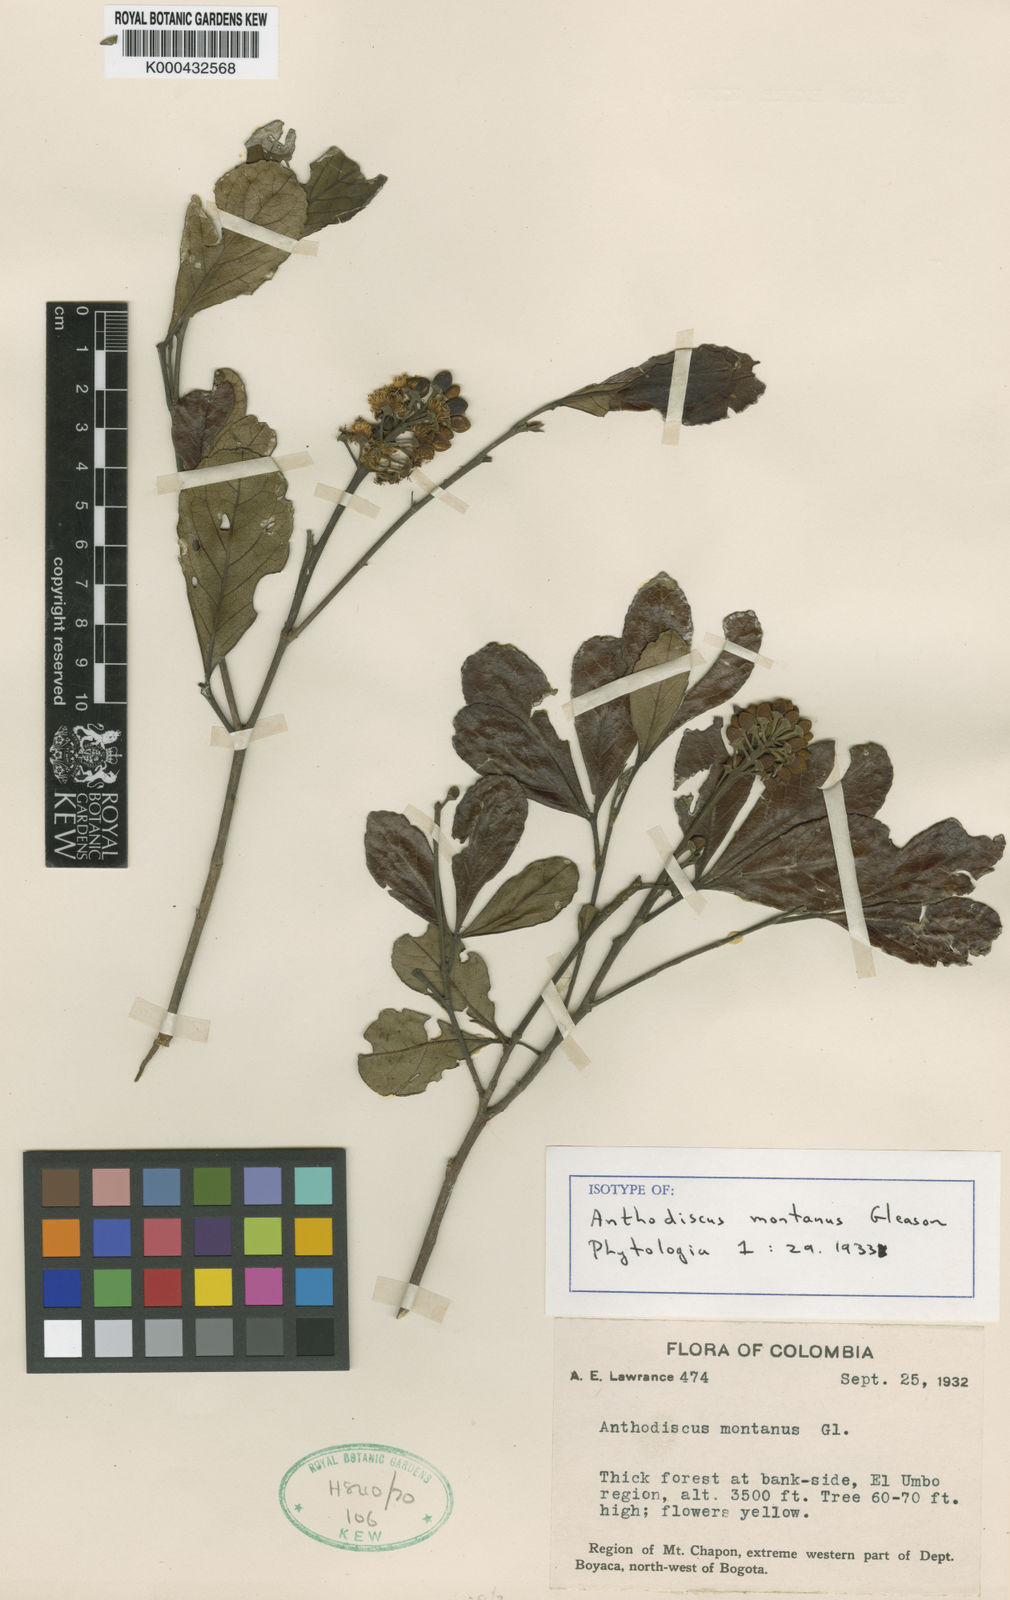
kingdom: Plantae
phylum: Tracheophyta
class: Magnoliopsida
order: Malpighiales
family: Caryocaraceae
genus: Anthodiscus
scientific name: Anthodiscus montanus
